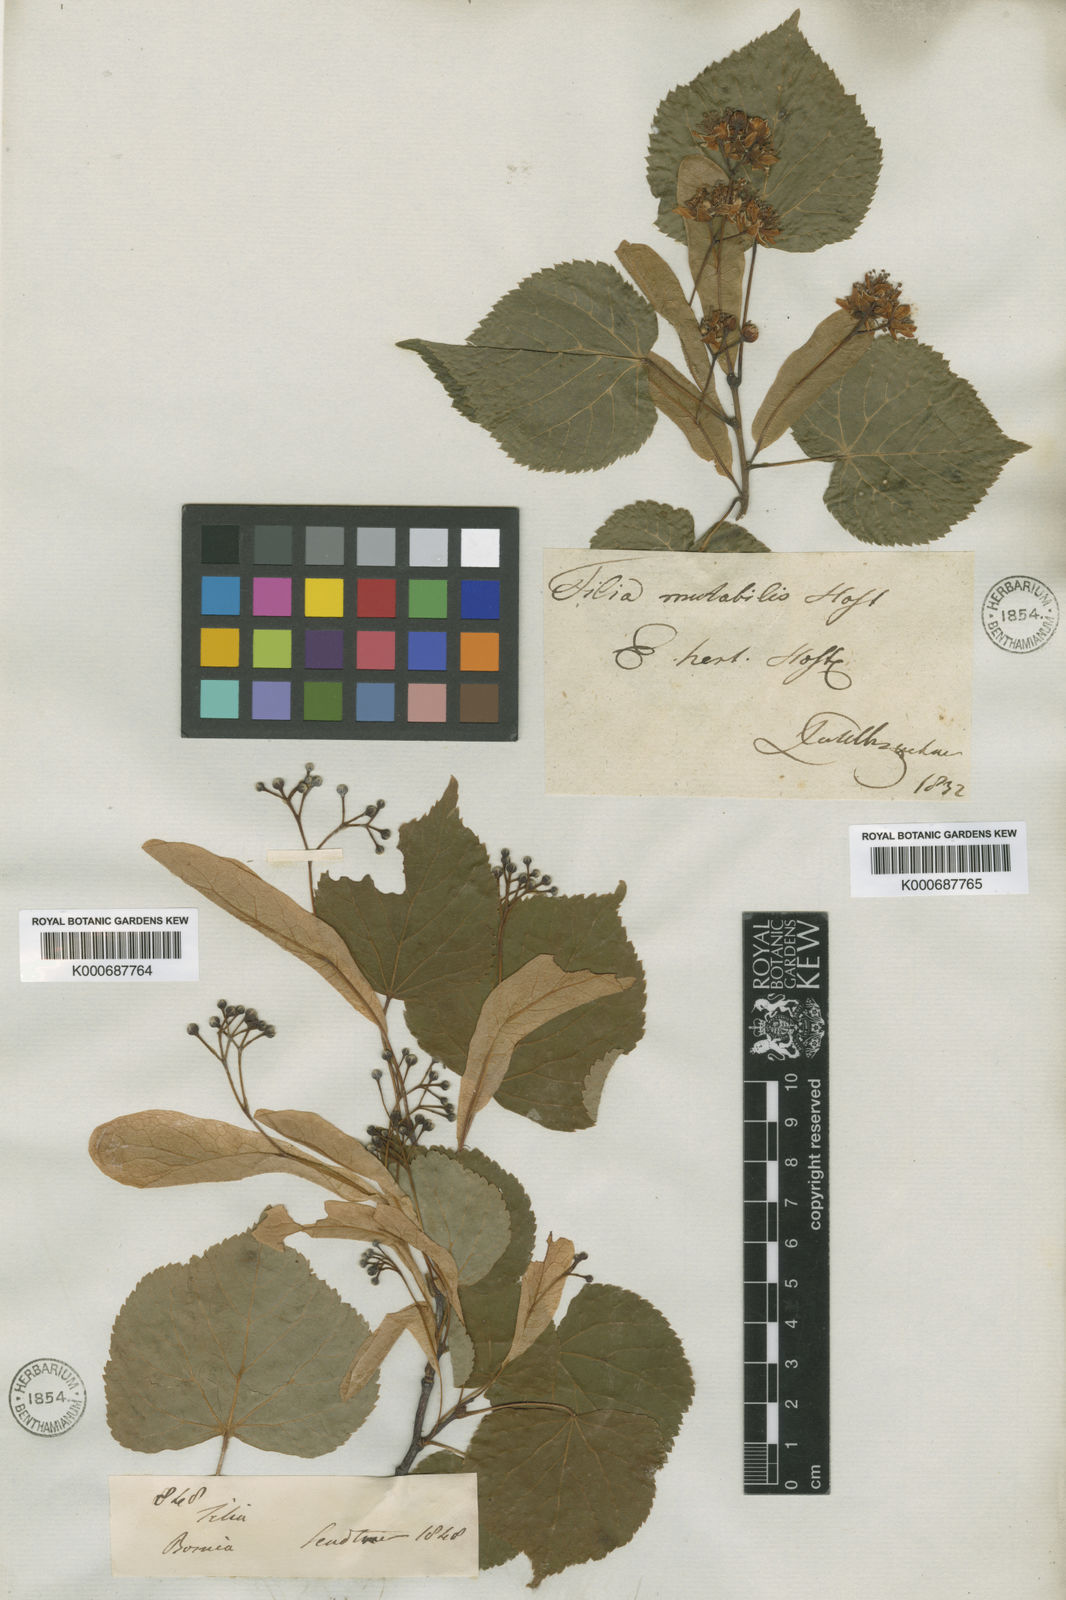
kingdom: Plantae
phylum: Tracheophyta
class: Magnoliopsida
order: Malvales
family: Malvaceae
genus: Tilia
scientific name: Tilia platyphyllos
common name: Large-leaved lime
